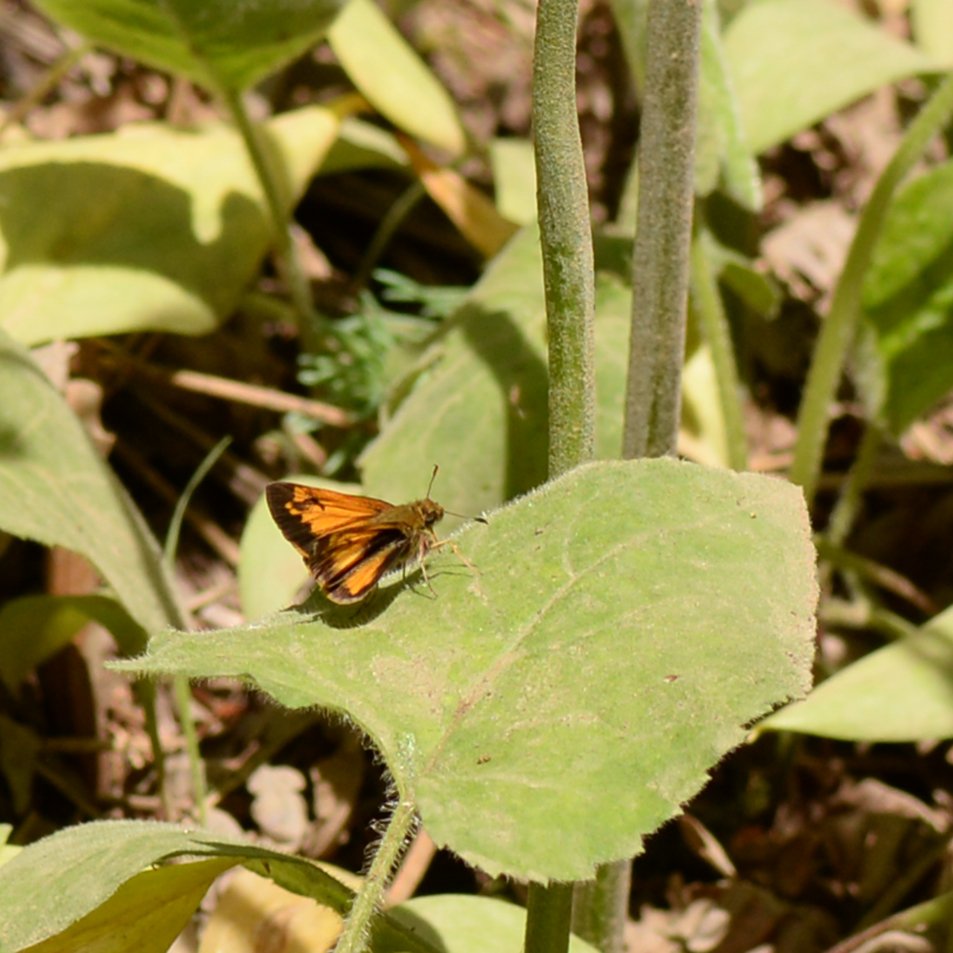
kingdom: Animalia
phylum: Arthropoda
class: Insecta
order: Lepidoptera
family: Hesperiidae
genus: Lon
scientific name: Lon hobomok
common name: Hobomok Skipper
